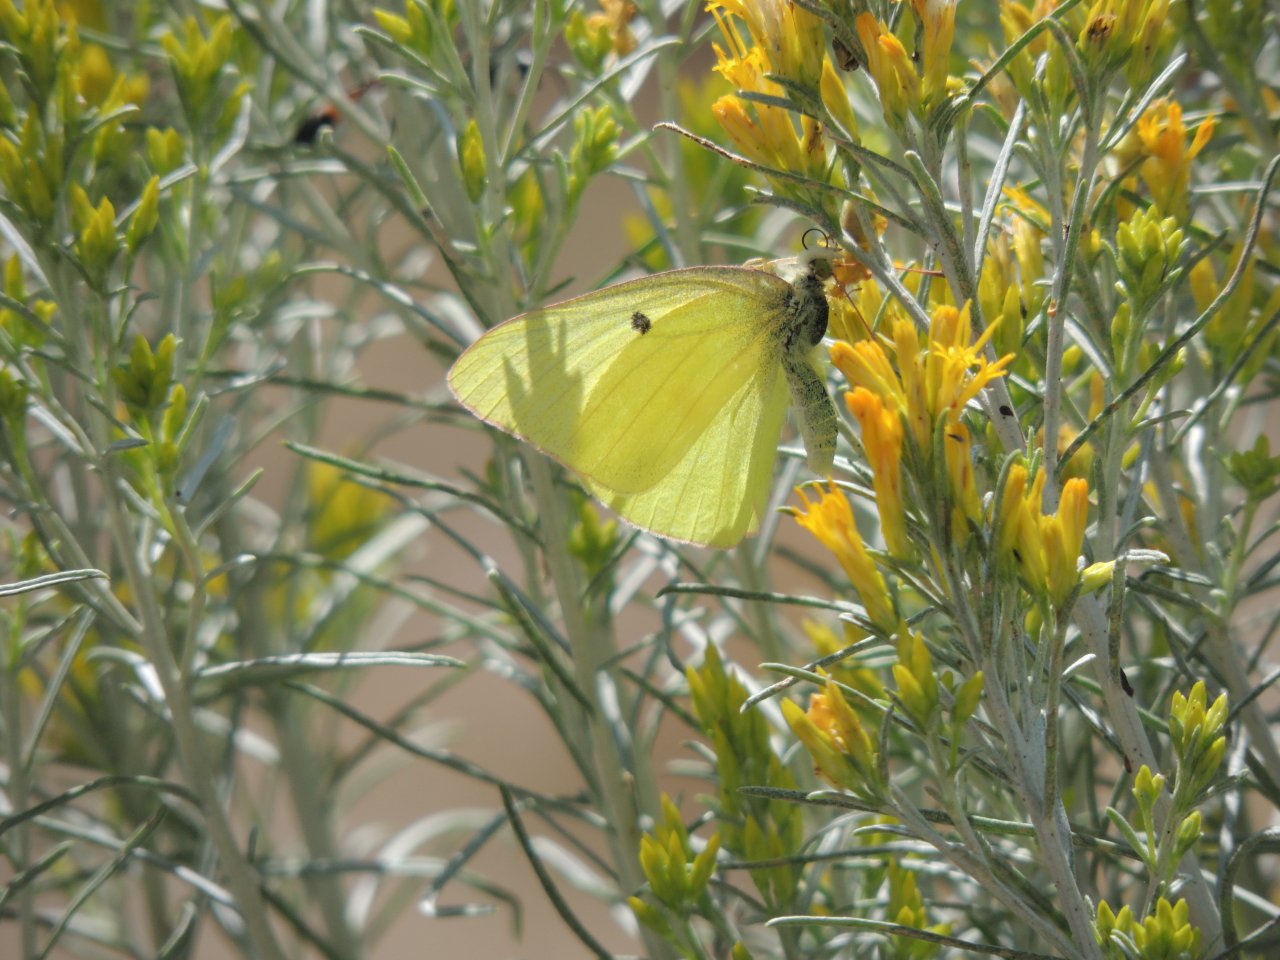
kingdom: Animalia
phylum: Arthropoda
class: Insecta
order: Lepidoptera
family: Pieridae
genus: Colias
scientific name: Colias alexandra
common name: Queen Alexandra's Sulphur
